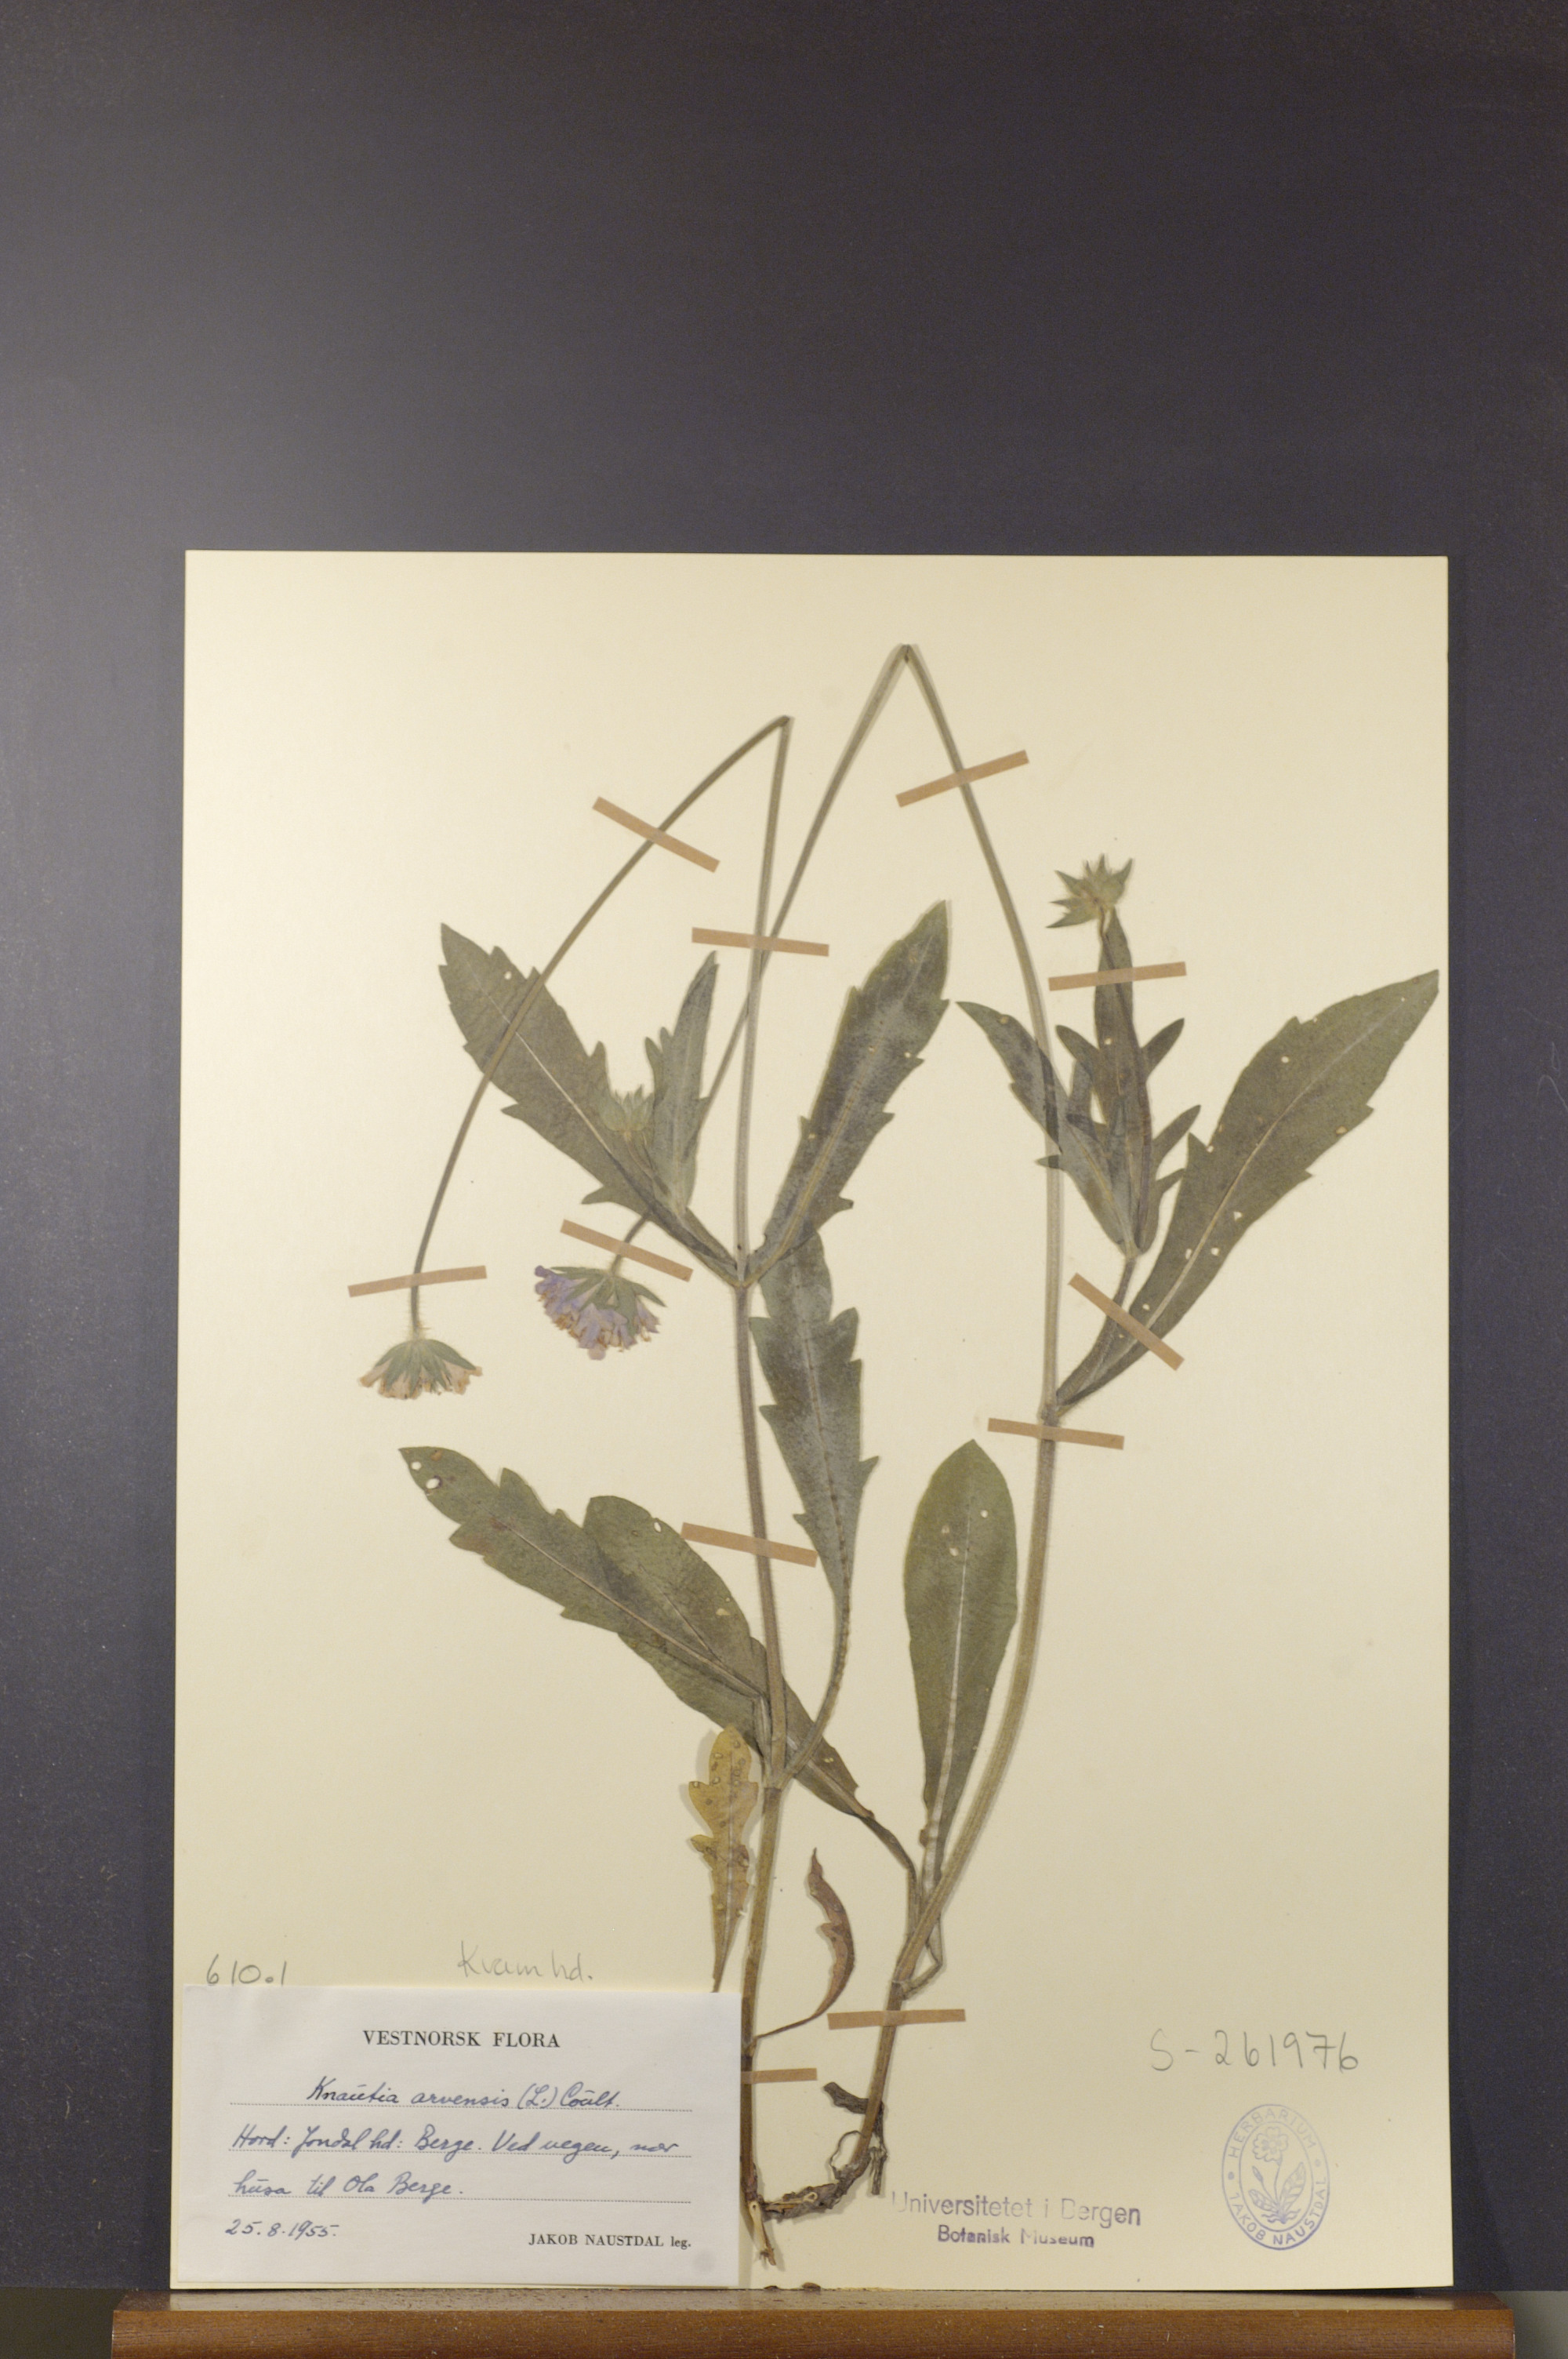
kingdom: Plantae
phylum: Tracheophyta
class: Magnoliopsida
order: Dipsacales
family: Caprifoliaceae
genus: Knautia
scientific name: Knautia arvensis
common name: Field scabiosa
